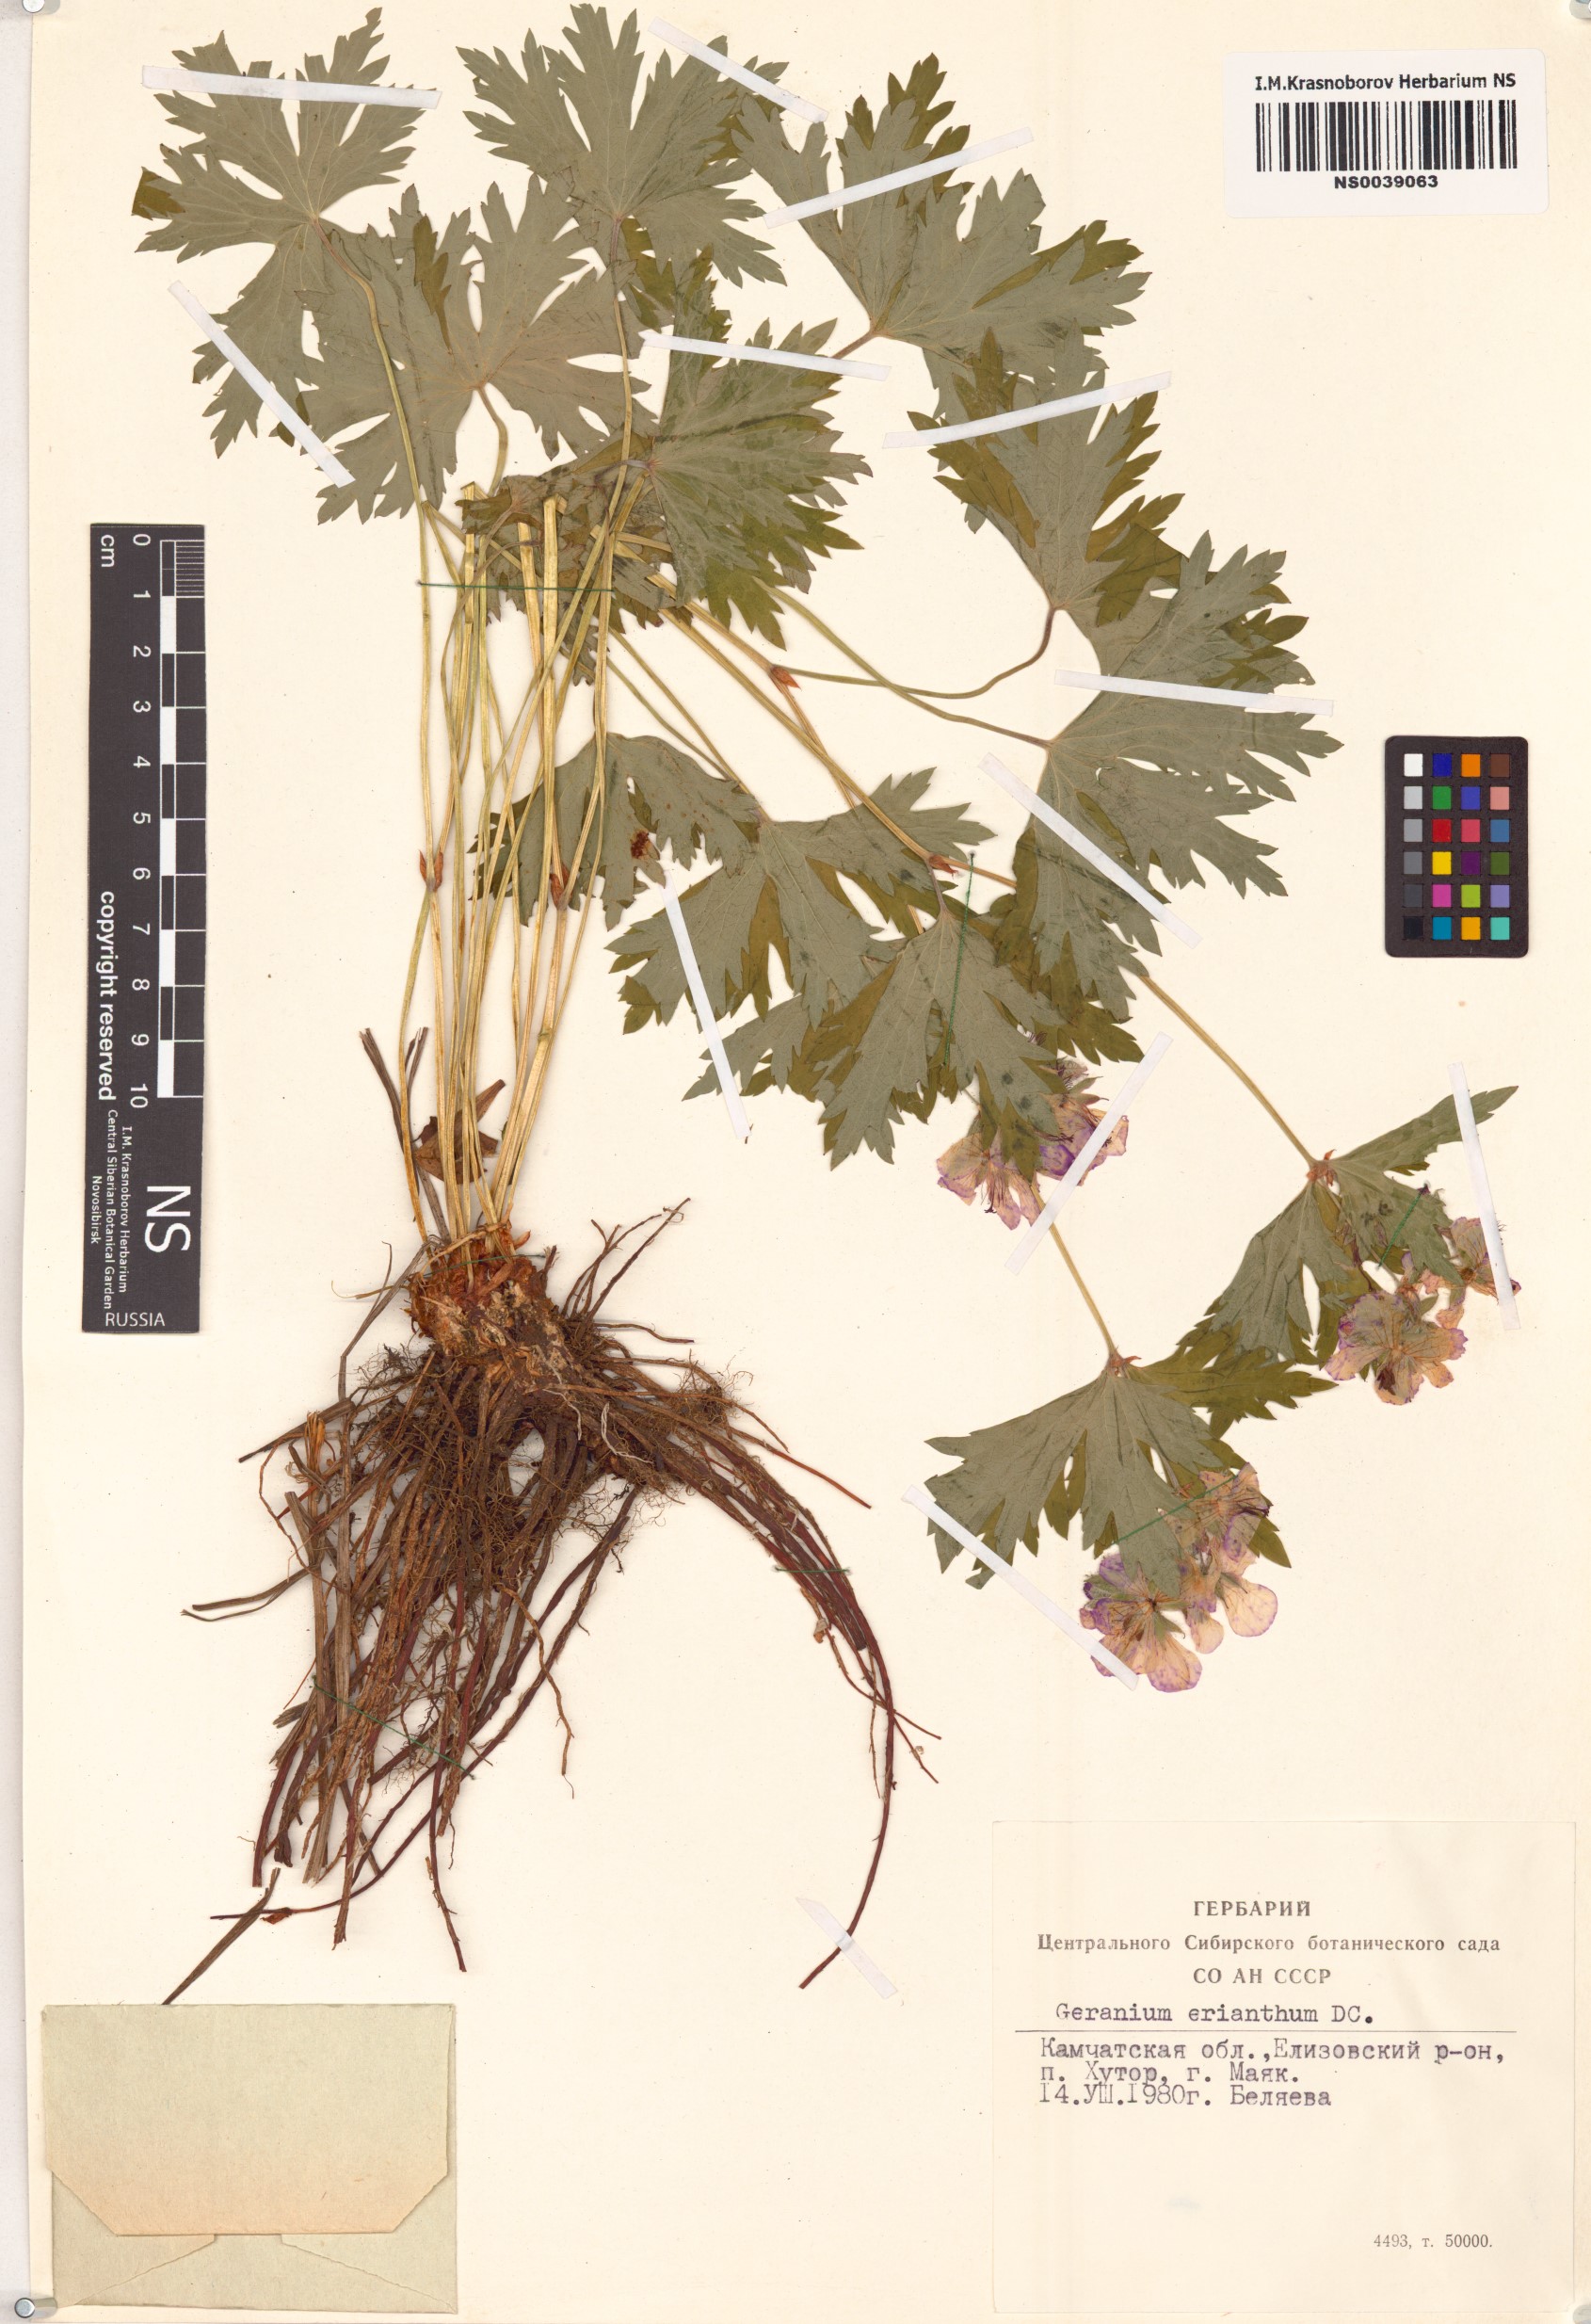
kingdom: Plantae
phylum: Tracheophyta
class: Magnoliopsida
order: Geraniales
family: Geraniaceae
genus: Geranium
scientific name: Geranium erianthum
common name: Northern crane's-bill
